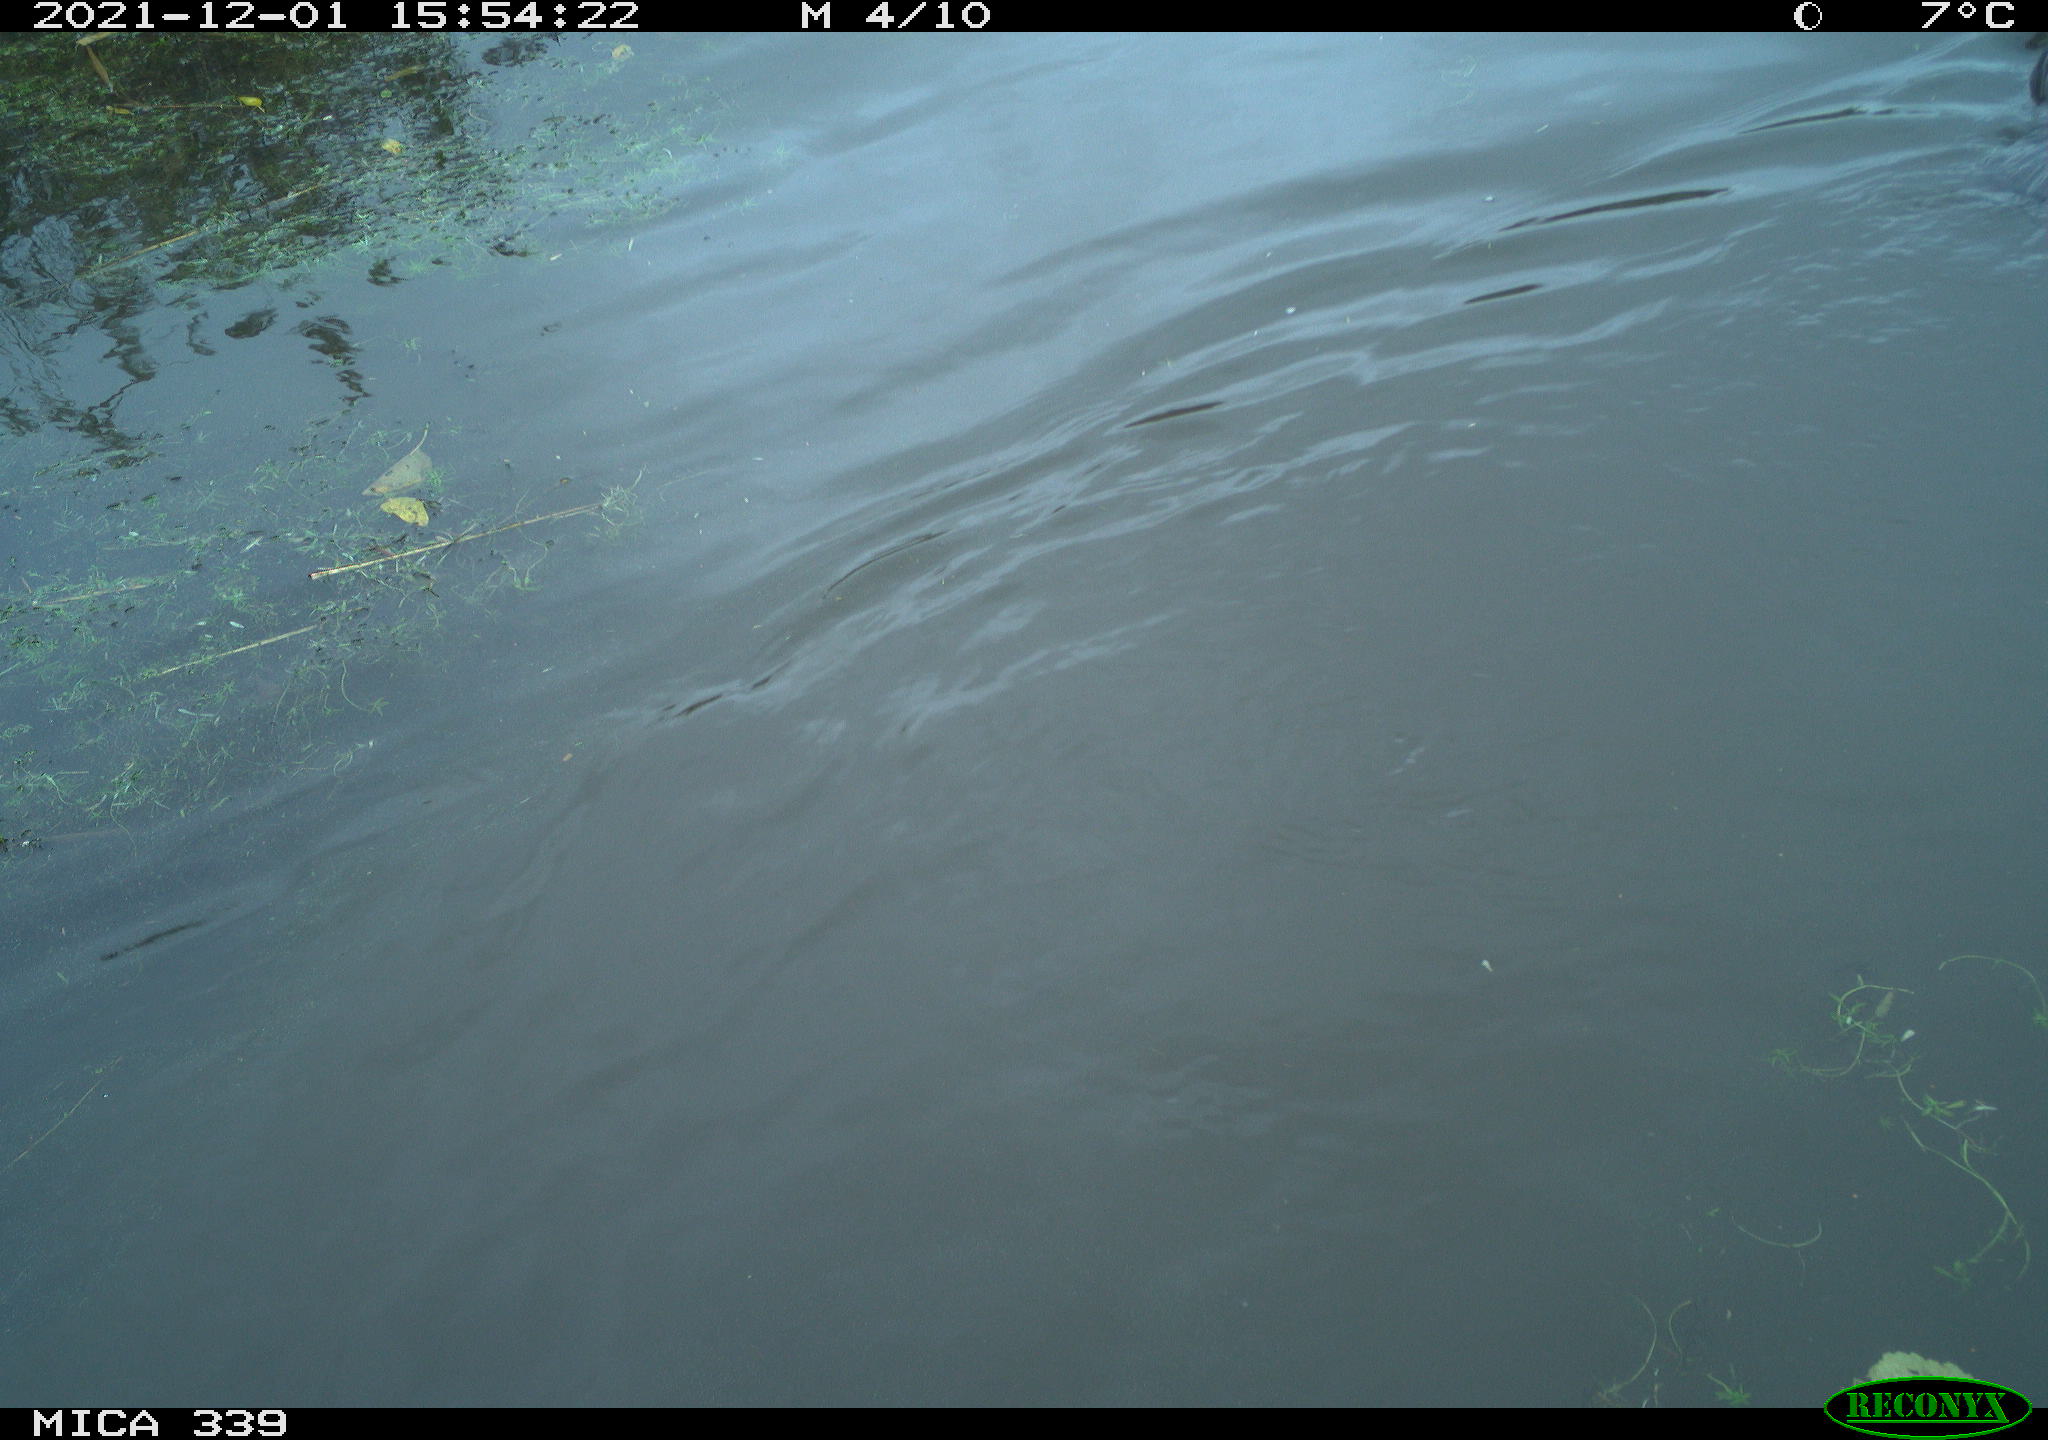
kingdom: Animalia
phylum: Chordata
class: Aves
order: Suliformes
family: Phalacrocoracidae
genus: Phalacrocorax
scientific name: Phalacrocorax carbo
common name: Great cormorant
